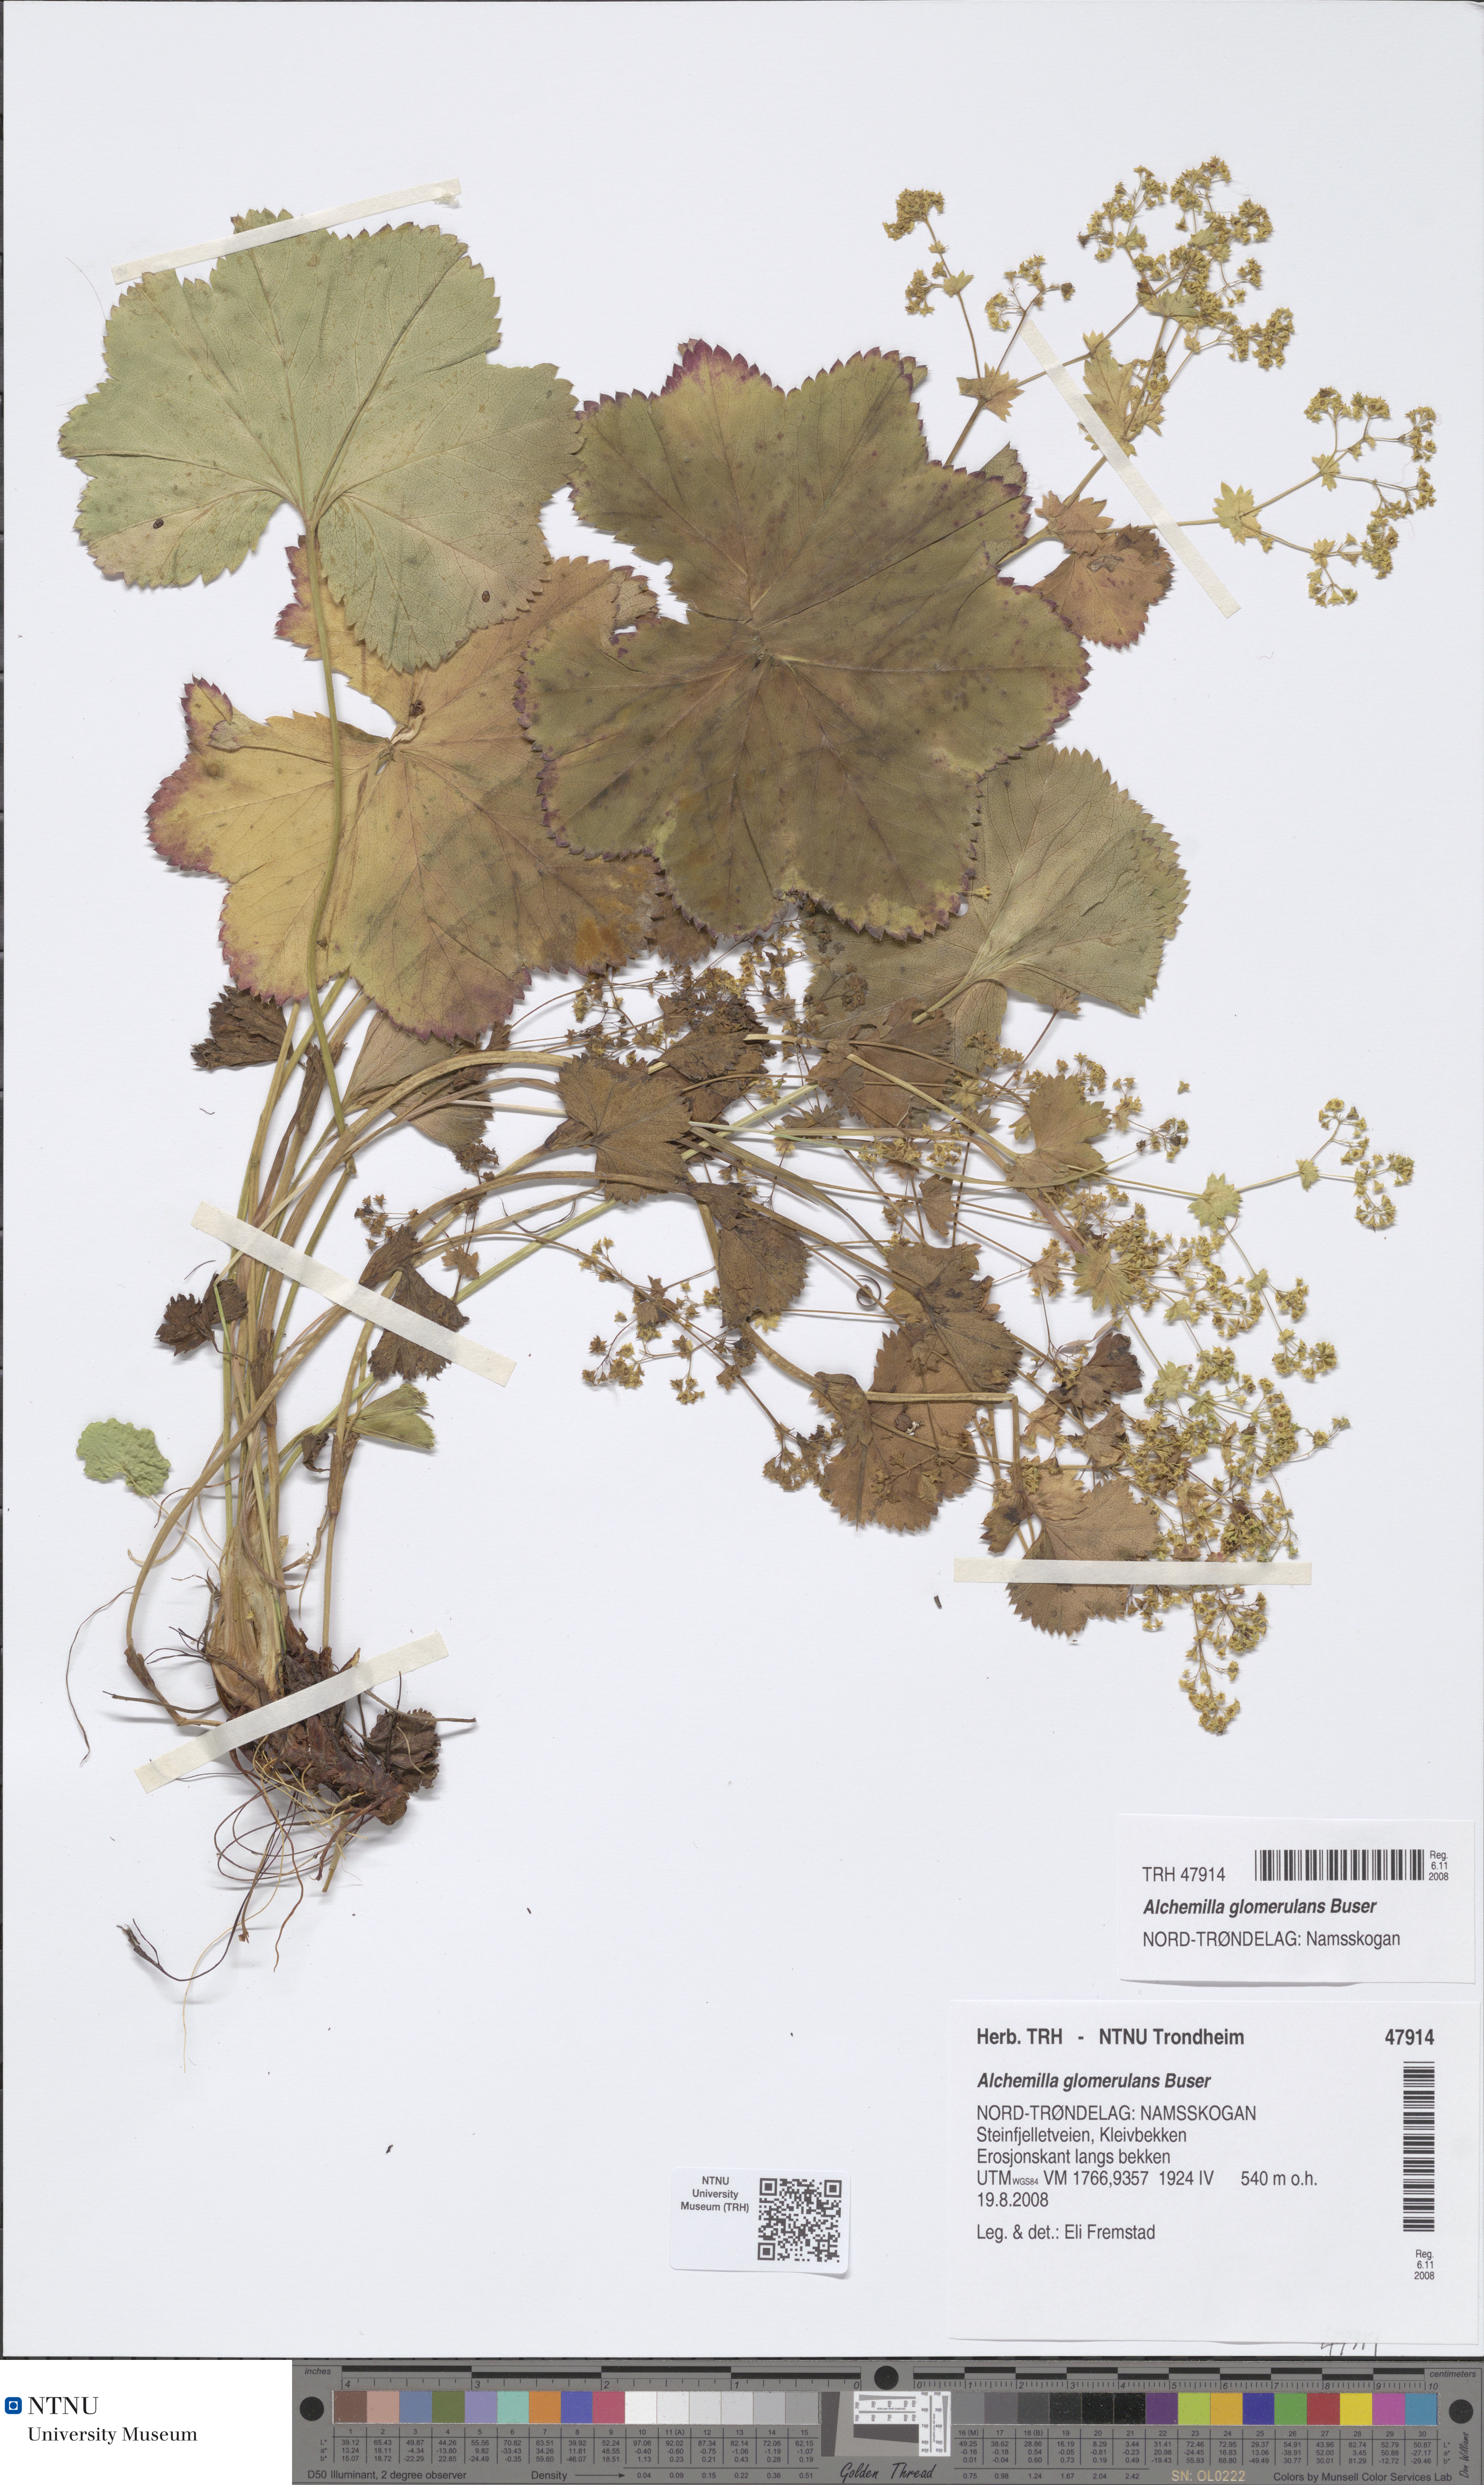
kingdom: Plantae
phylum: Tracheophyta
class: Magnoliopsida
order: Rosales
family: Rosaceae
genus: Alchemilla
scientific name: Alchemilla glomerulans
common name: Clustered lady's mantle
